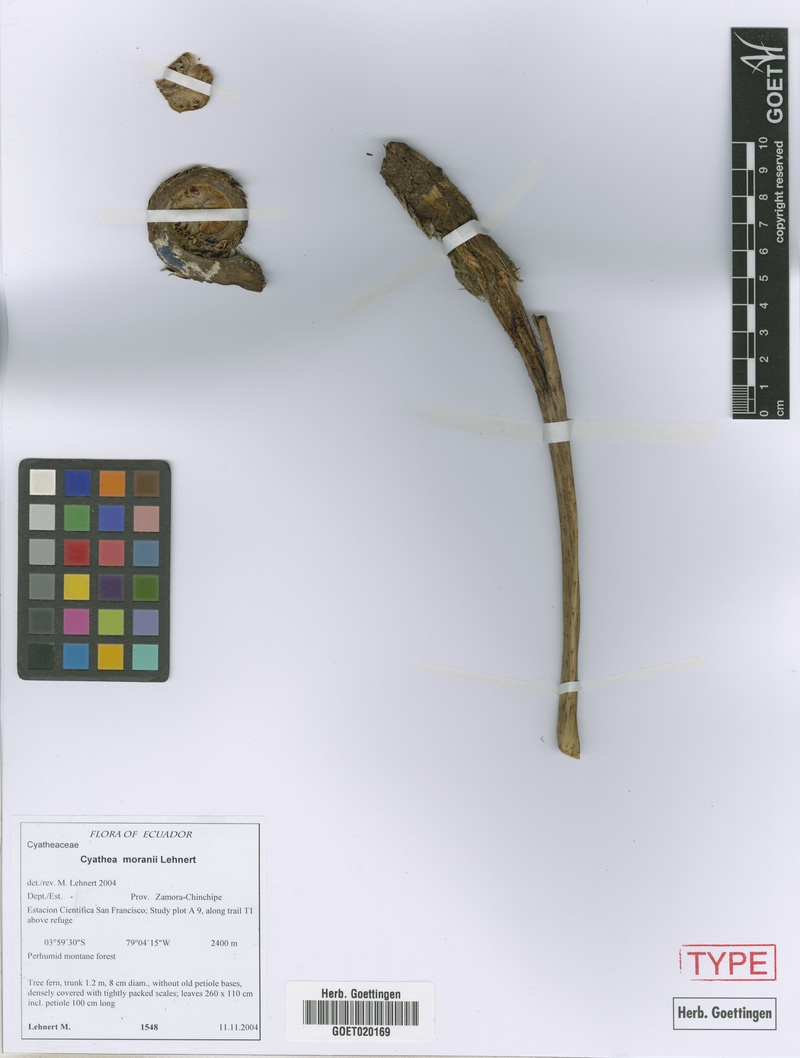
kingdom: Plantae
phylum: Tracheophyta
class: Polypodiopsida
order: Cyatheales
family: Cyatheaceae
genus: Cyathea
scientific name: Cyathea moranii
